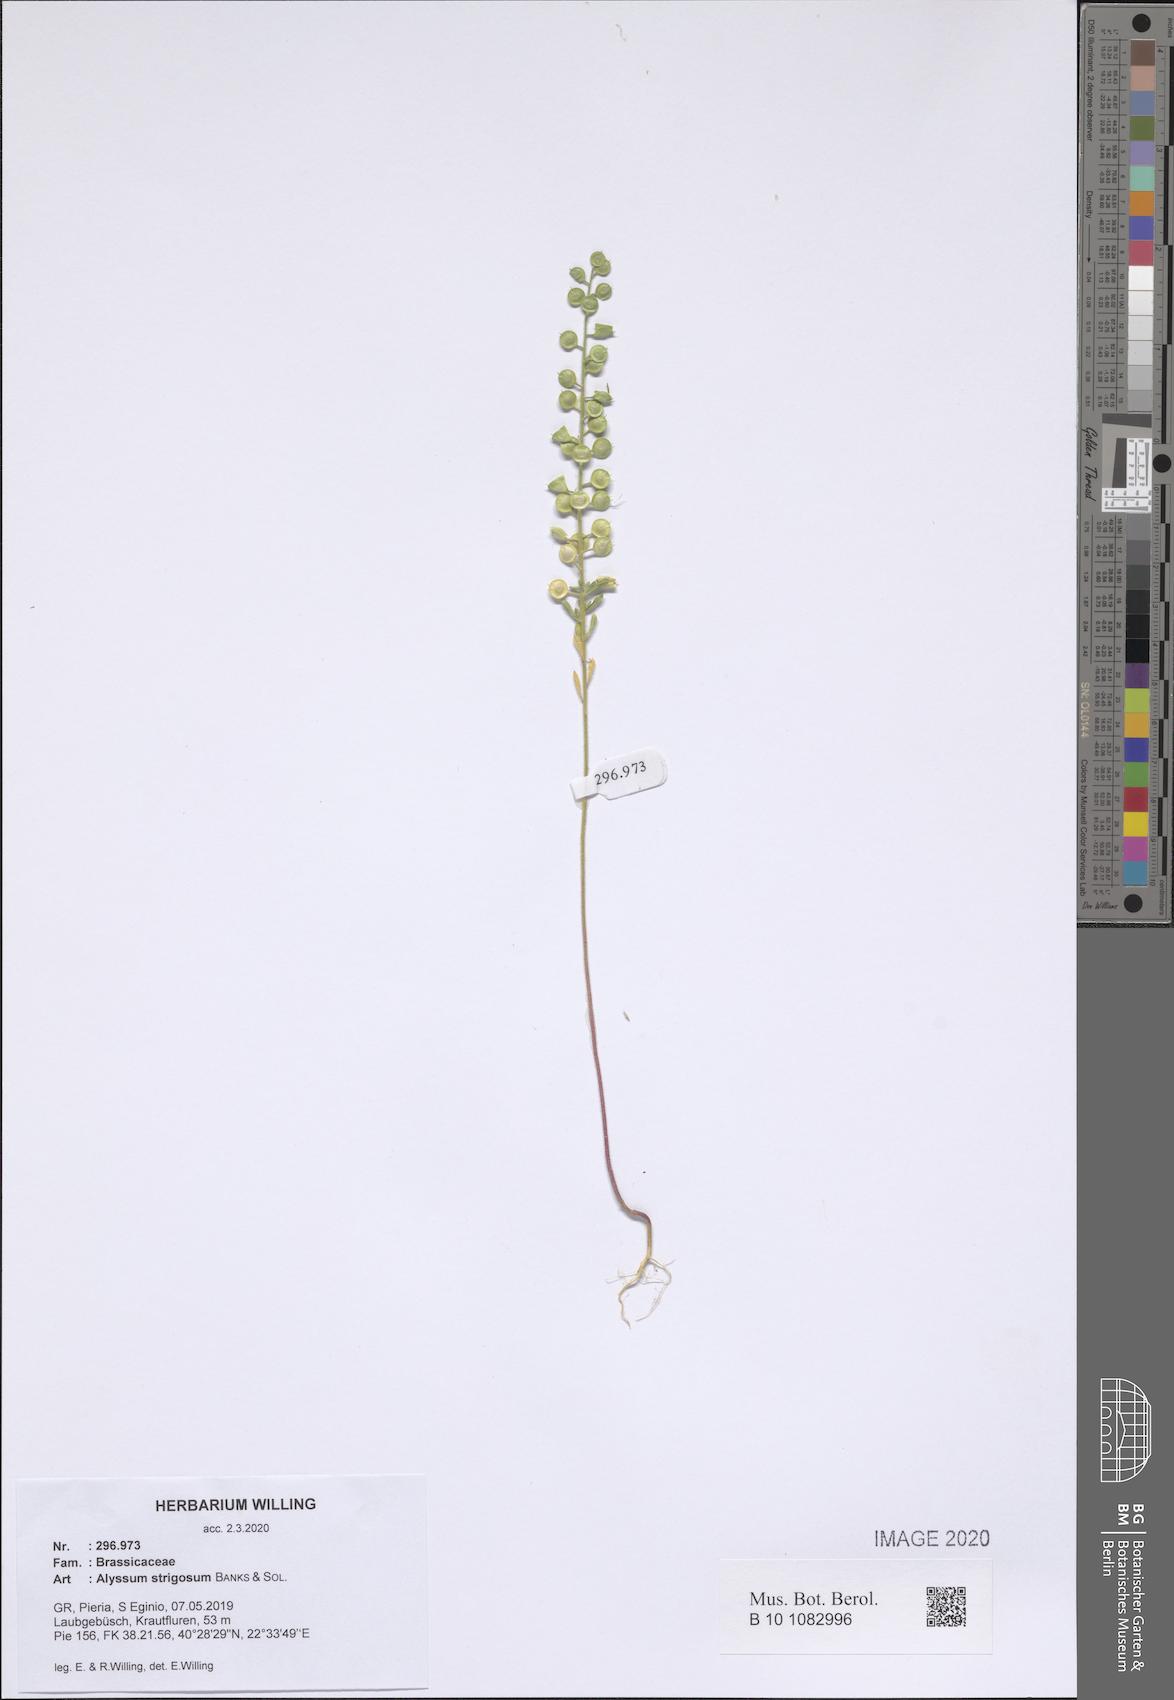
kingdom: Plantae
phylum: Tracheophyta
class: Magnoliopsida
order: Brassicales
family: Brassicaceae
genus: Alyssum
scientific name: Alyssum strigosum
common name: Alyssum
